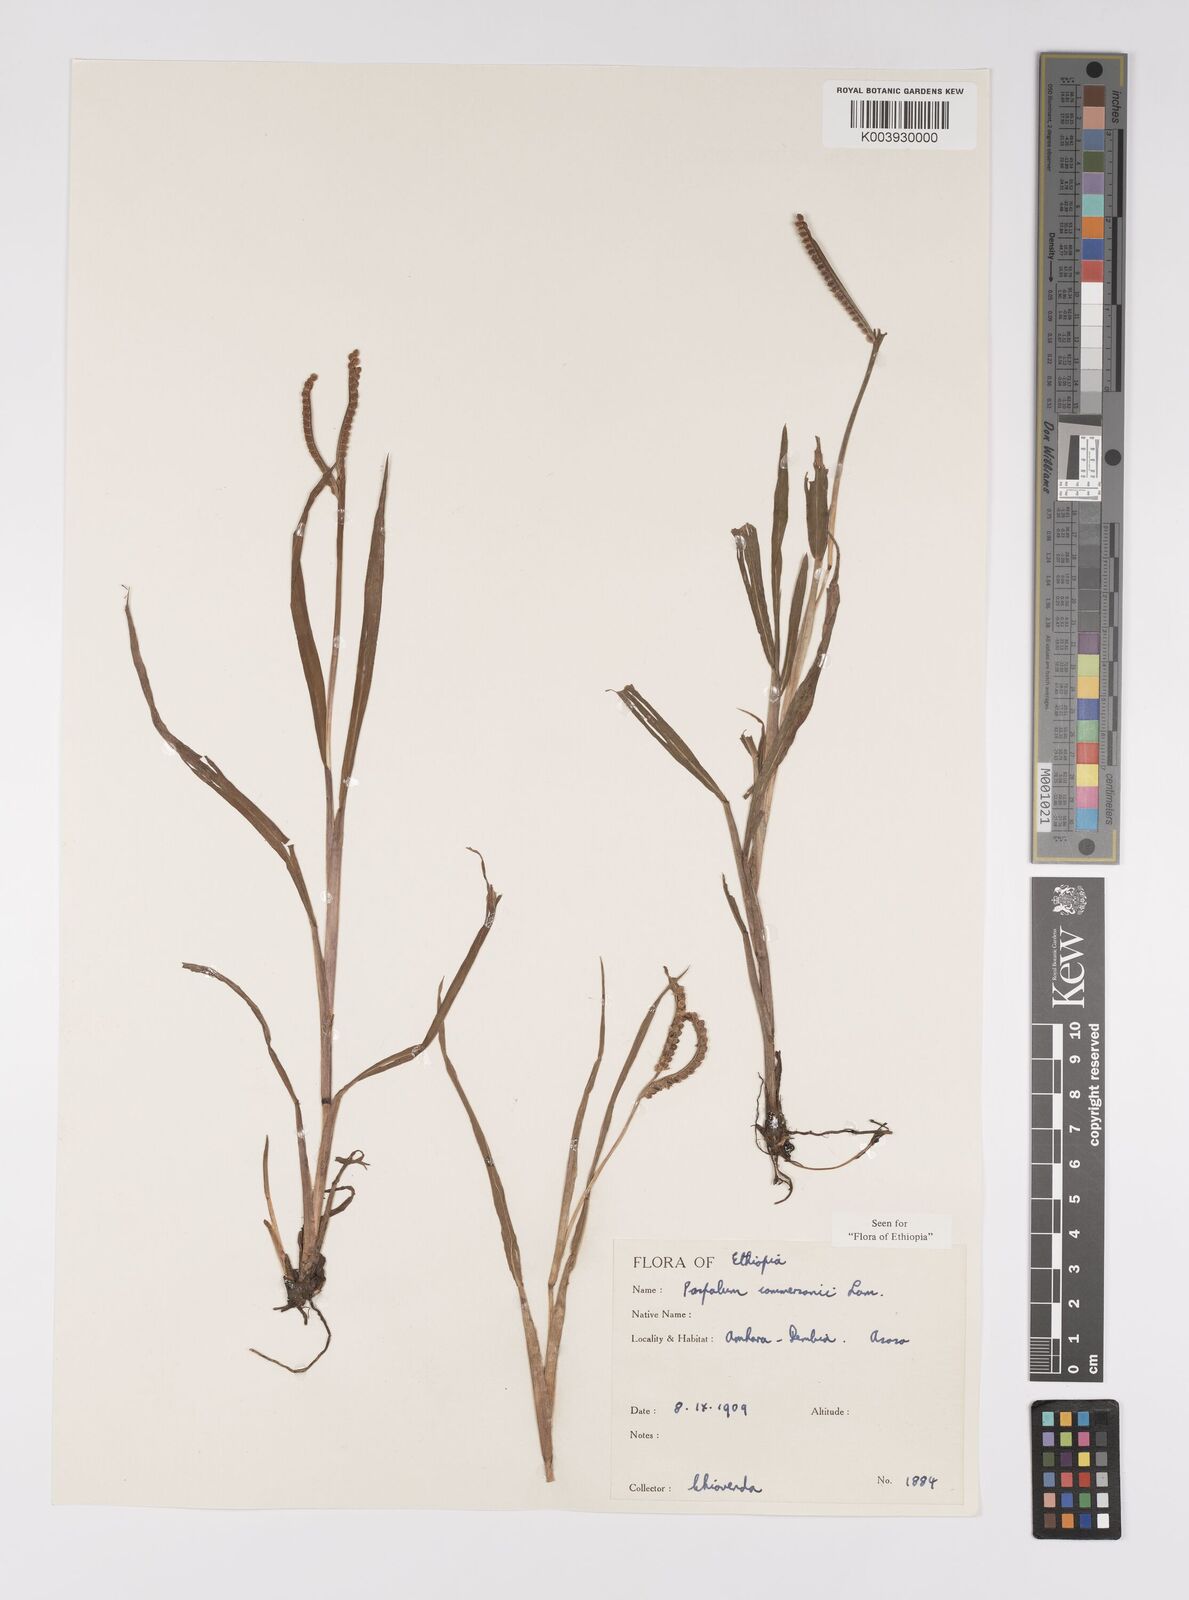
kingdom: Plantae
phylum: Tracheophyta
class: Liliopsida
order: Poales
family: Poaceae
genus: Paspalum
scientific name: Paspalum scrobiculatum
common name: Kodo millet
